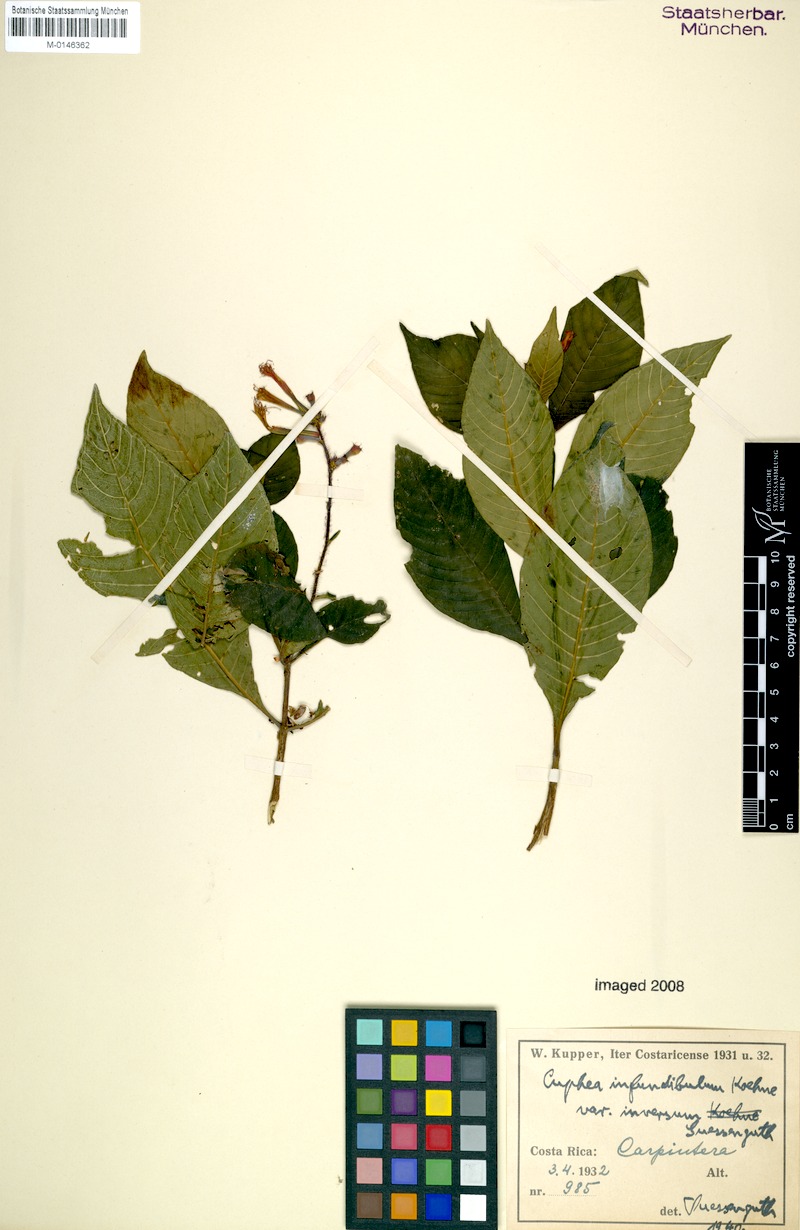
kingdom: Plantae
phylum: Tracheophyta
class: Magnoliopsida
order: Myrtales
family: Lythraceae
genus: Cuphea
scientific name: Cuphea appendiculata
